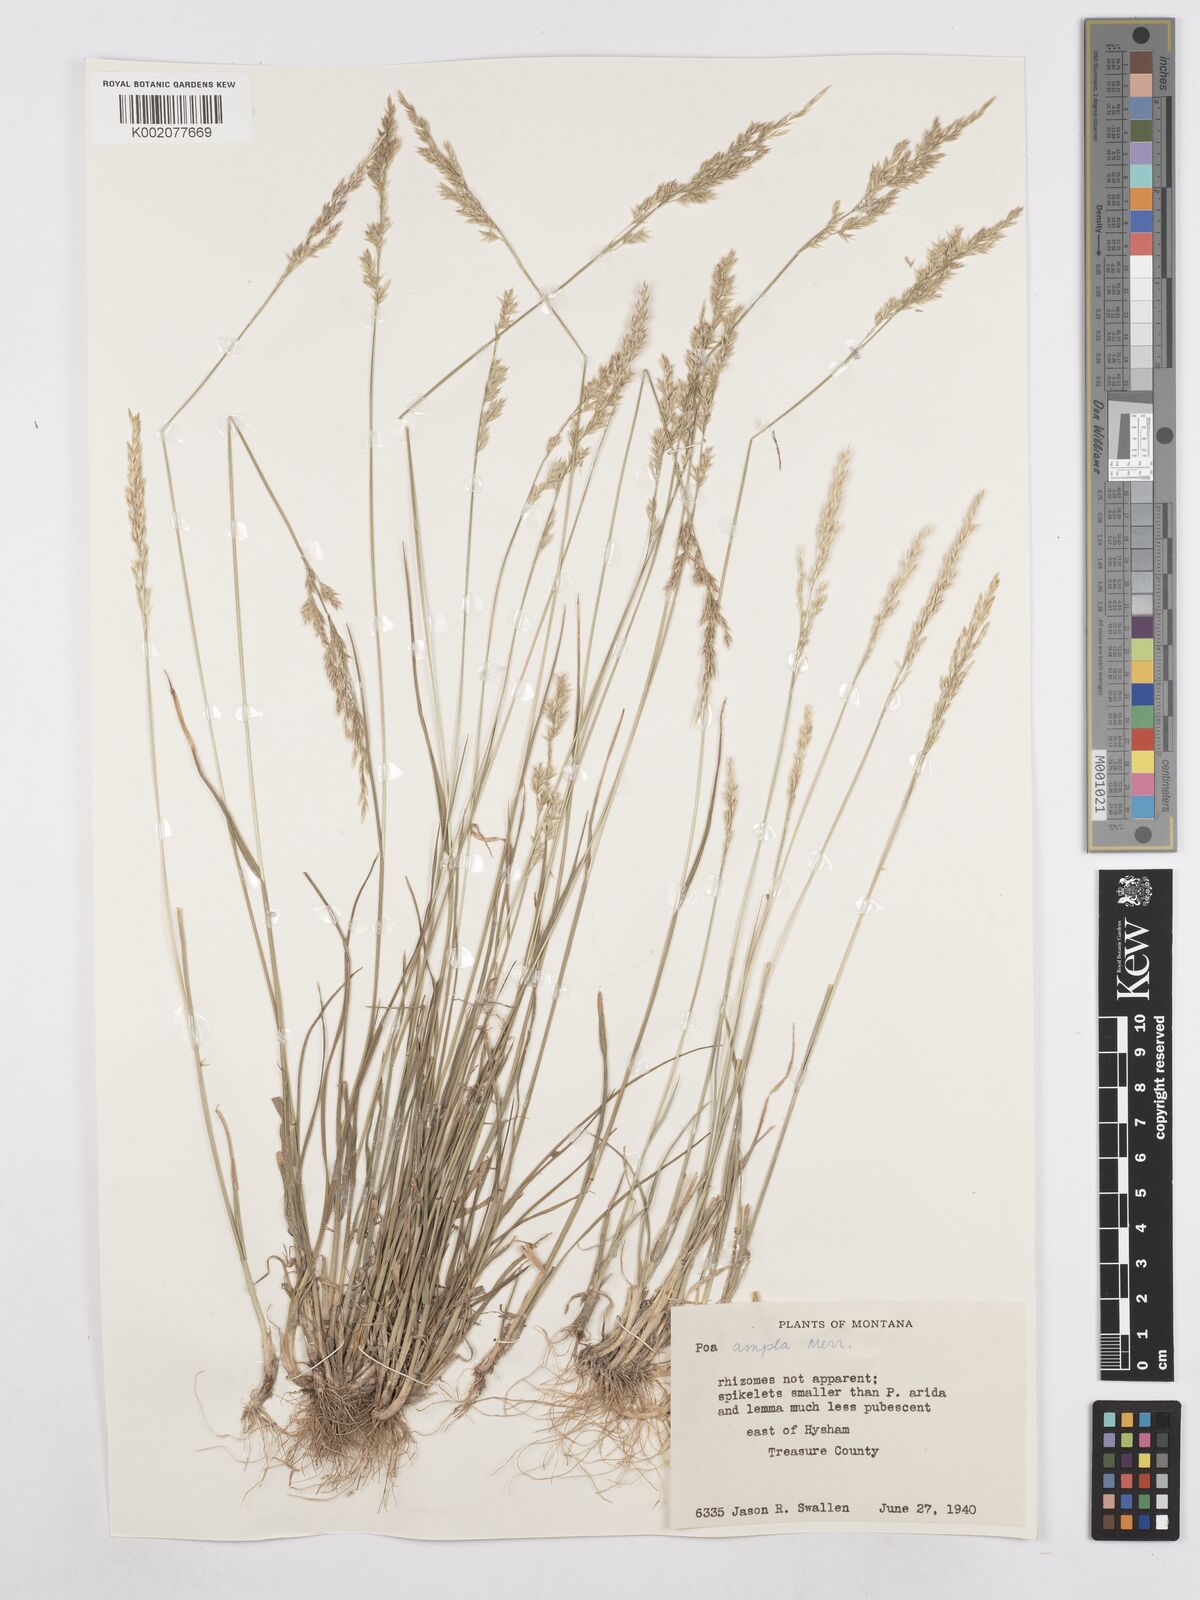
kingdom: Plantae
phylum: Tracheophyta
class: Liliopsida
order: Poales
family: Poaceae
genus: Poa
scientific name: Poa secunda
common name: Sandberg bluegrass
